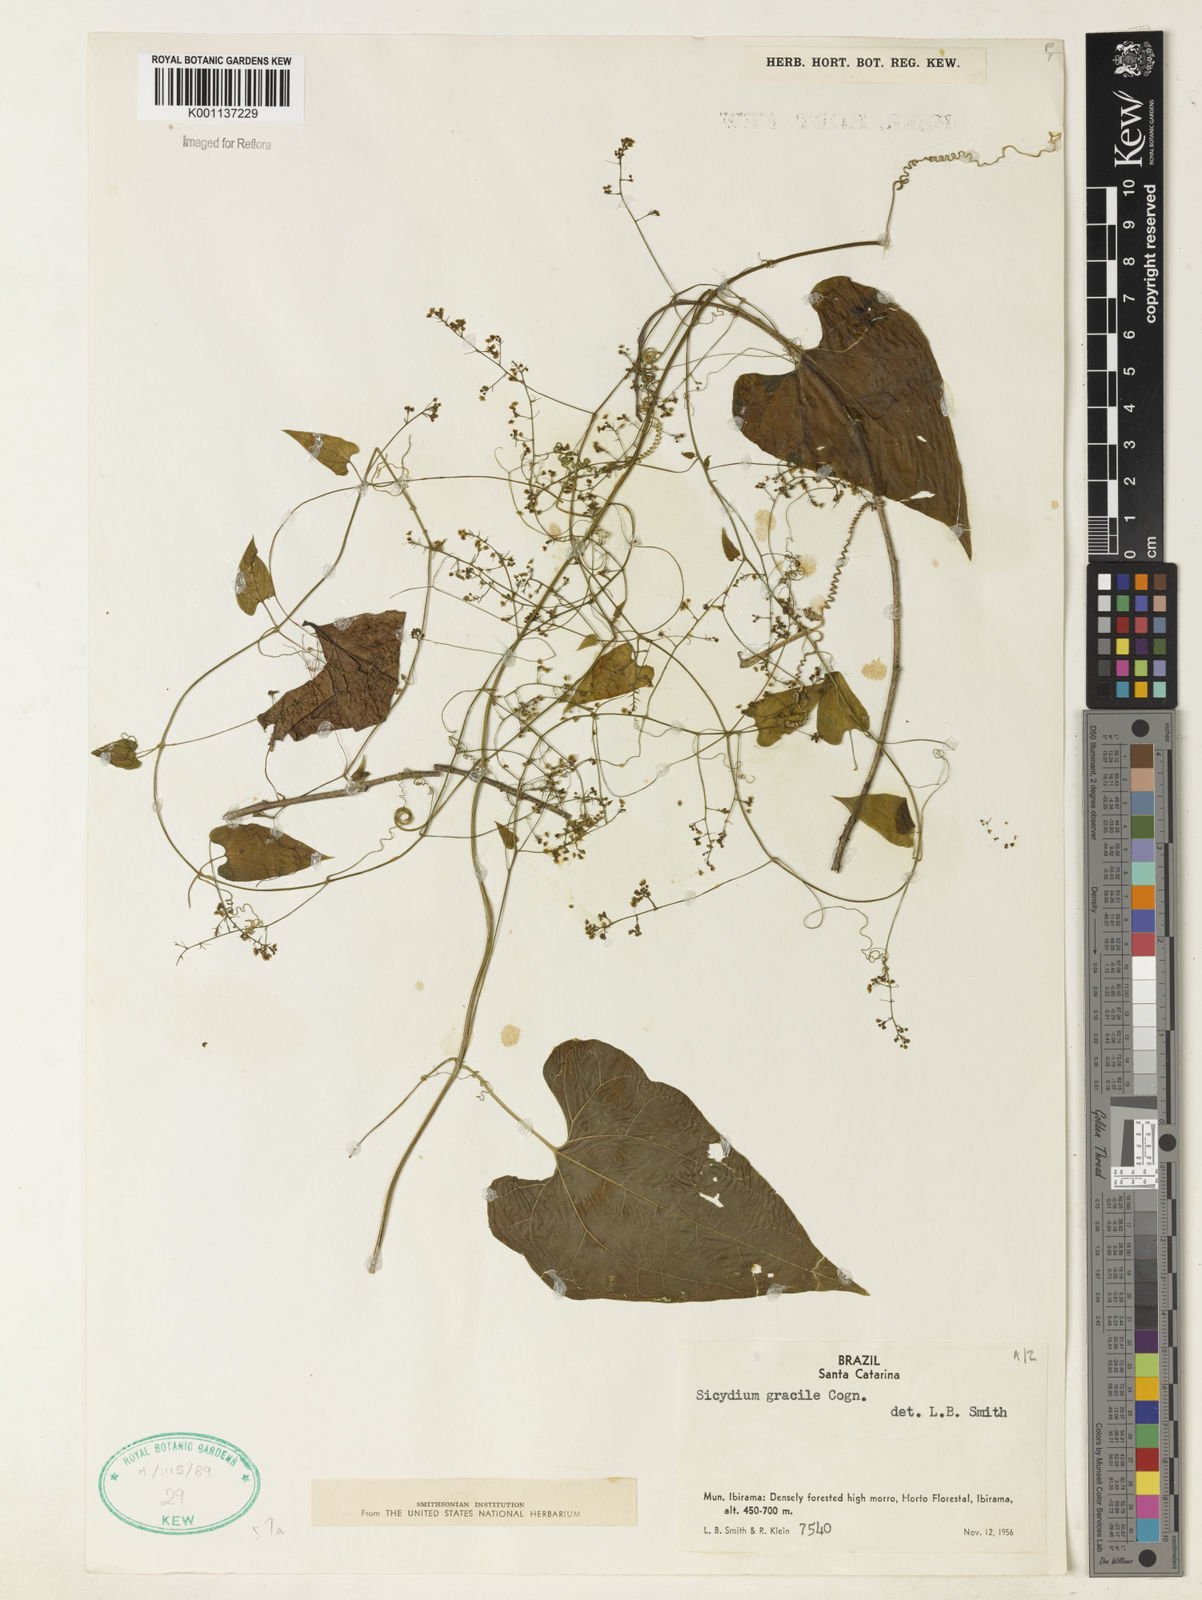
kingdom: Plantae
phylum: Tracheophyta
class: Magnoliopsida
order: Cucurbitales
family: Cucurbitaceae
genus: Sicydium
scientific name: Sicydium gracile
